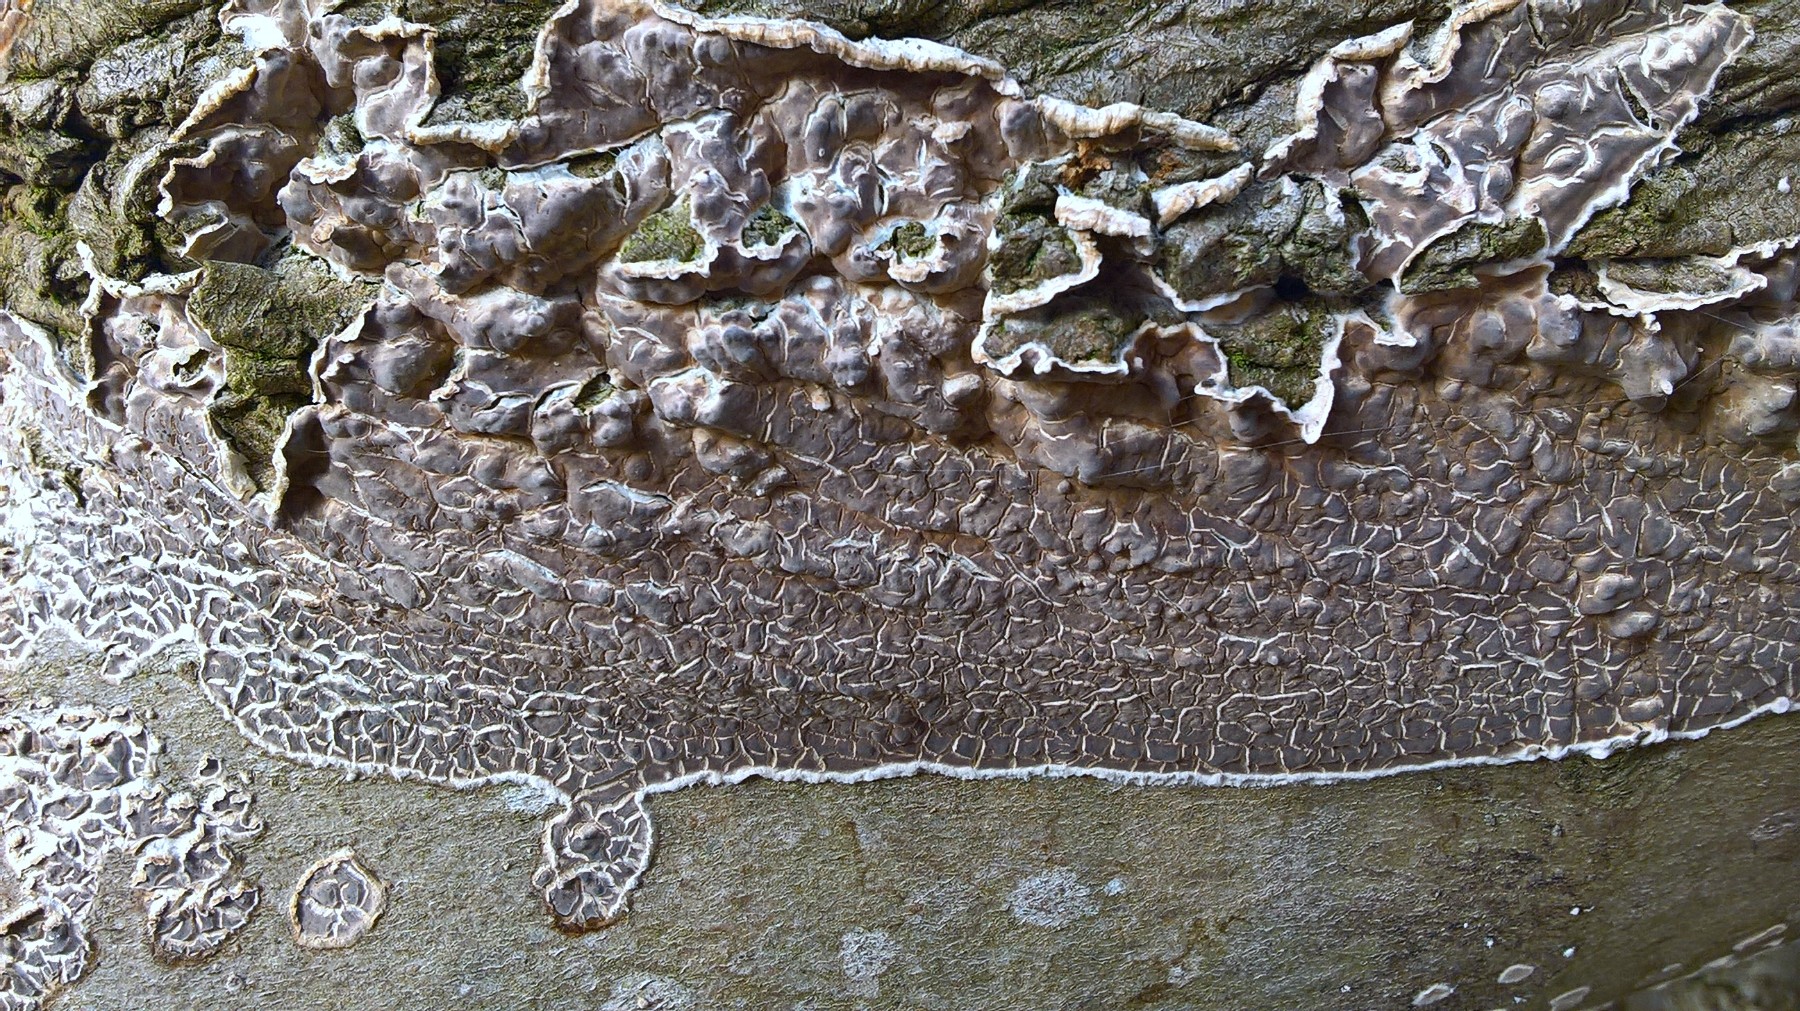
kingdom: Fungi
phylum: Basidiomycota
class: Agaricomycetes
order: Corticiales
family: Corticiaceae
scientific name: Corticiaceae
